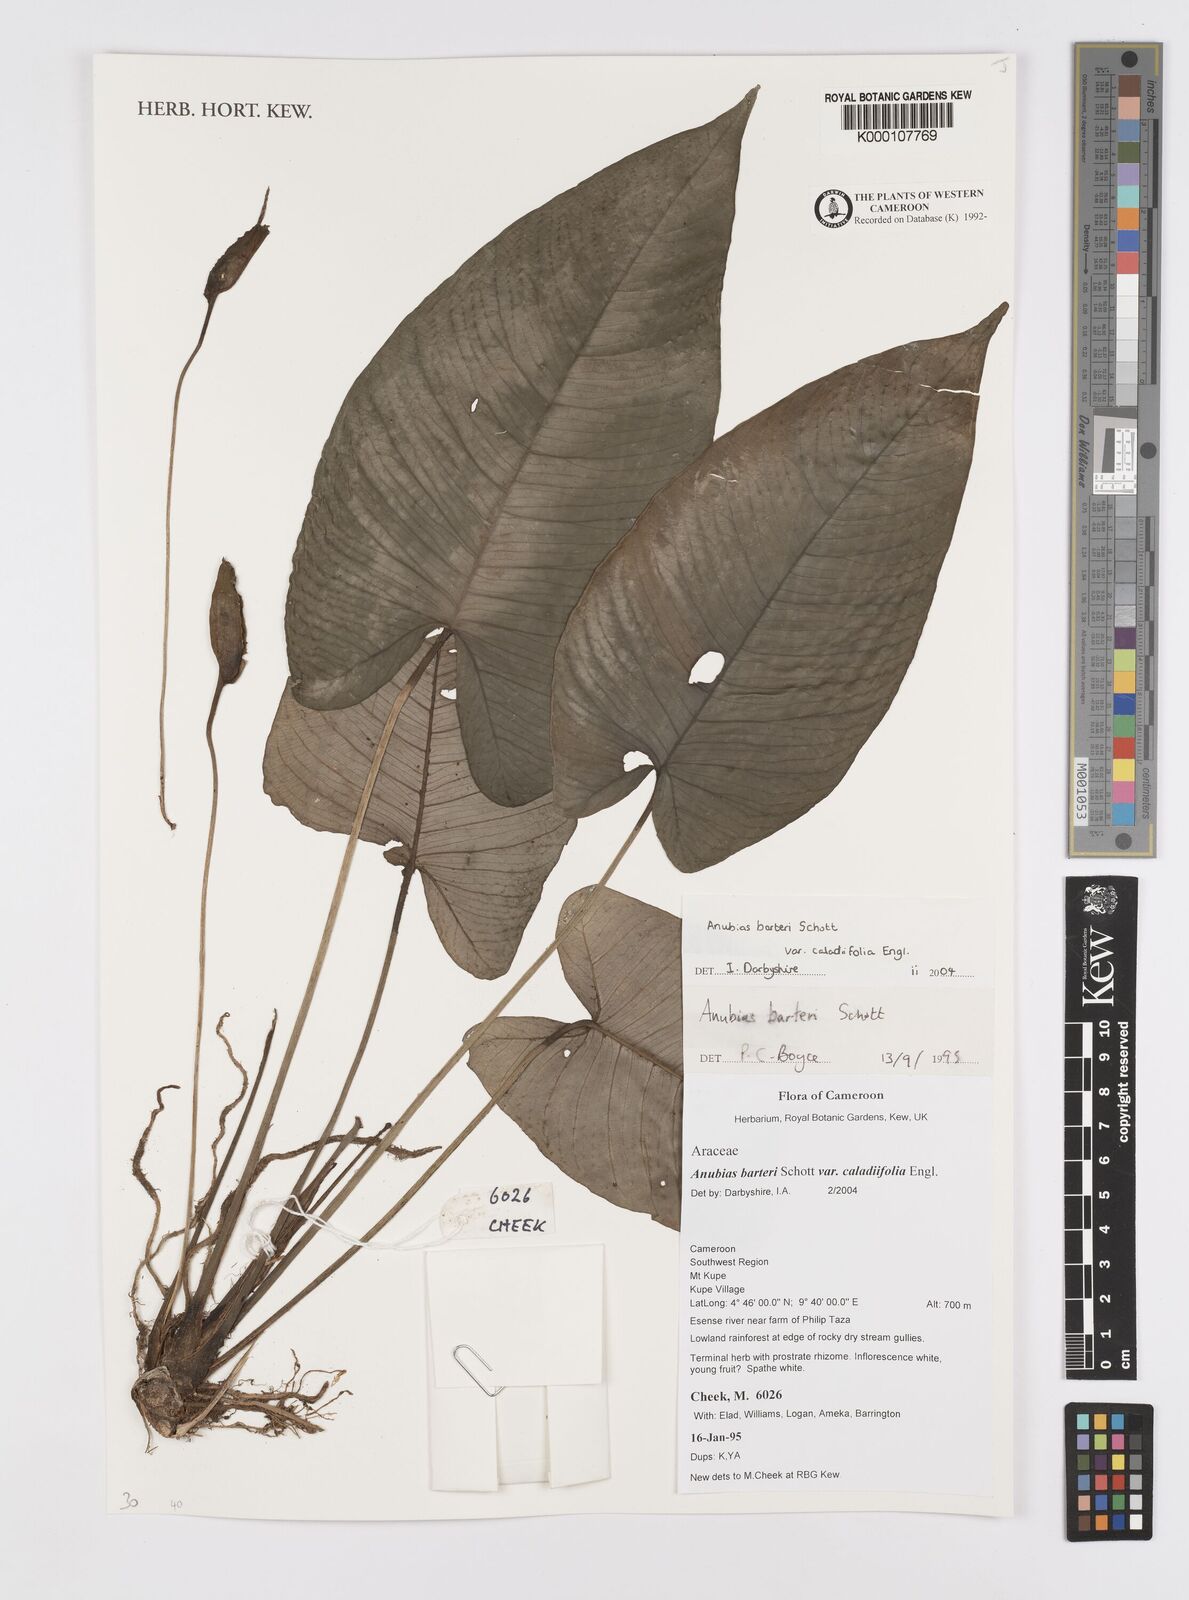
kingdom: Plantae
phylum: Tracheophyta
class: Liliopsida
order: Alismatales
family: Araceae
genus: Anubias
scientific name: Anubias barteri
